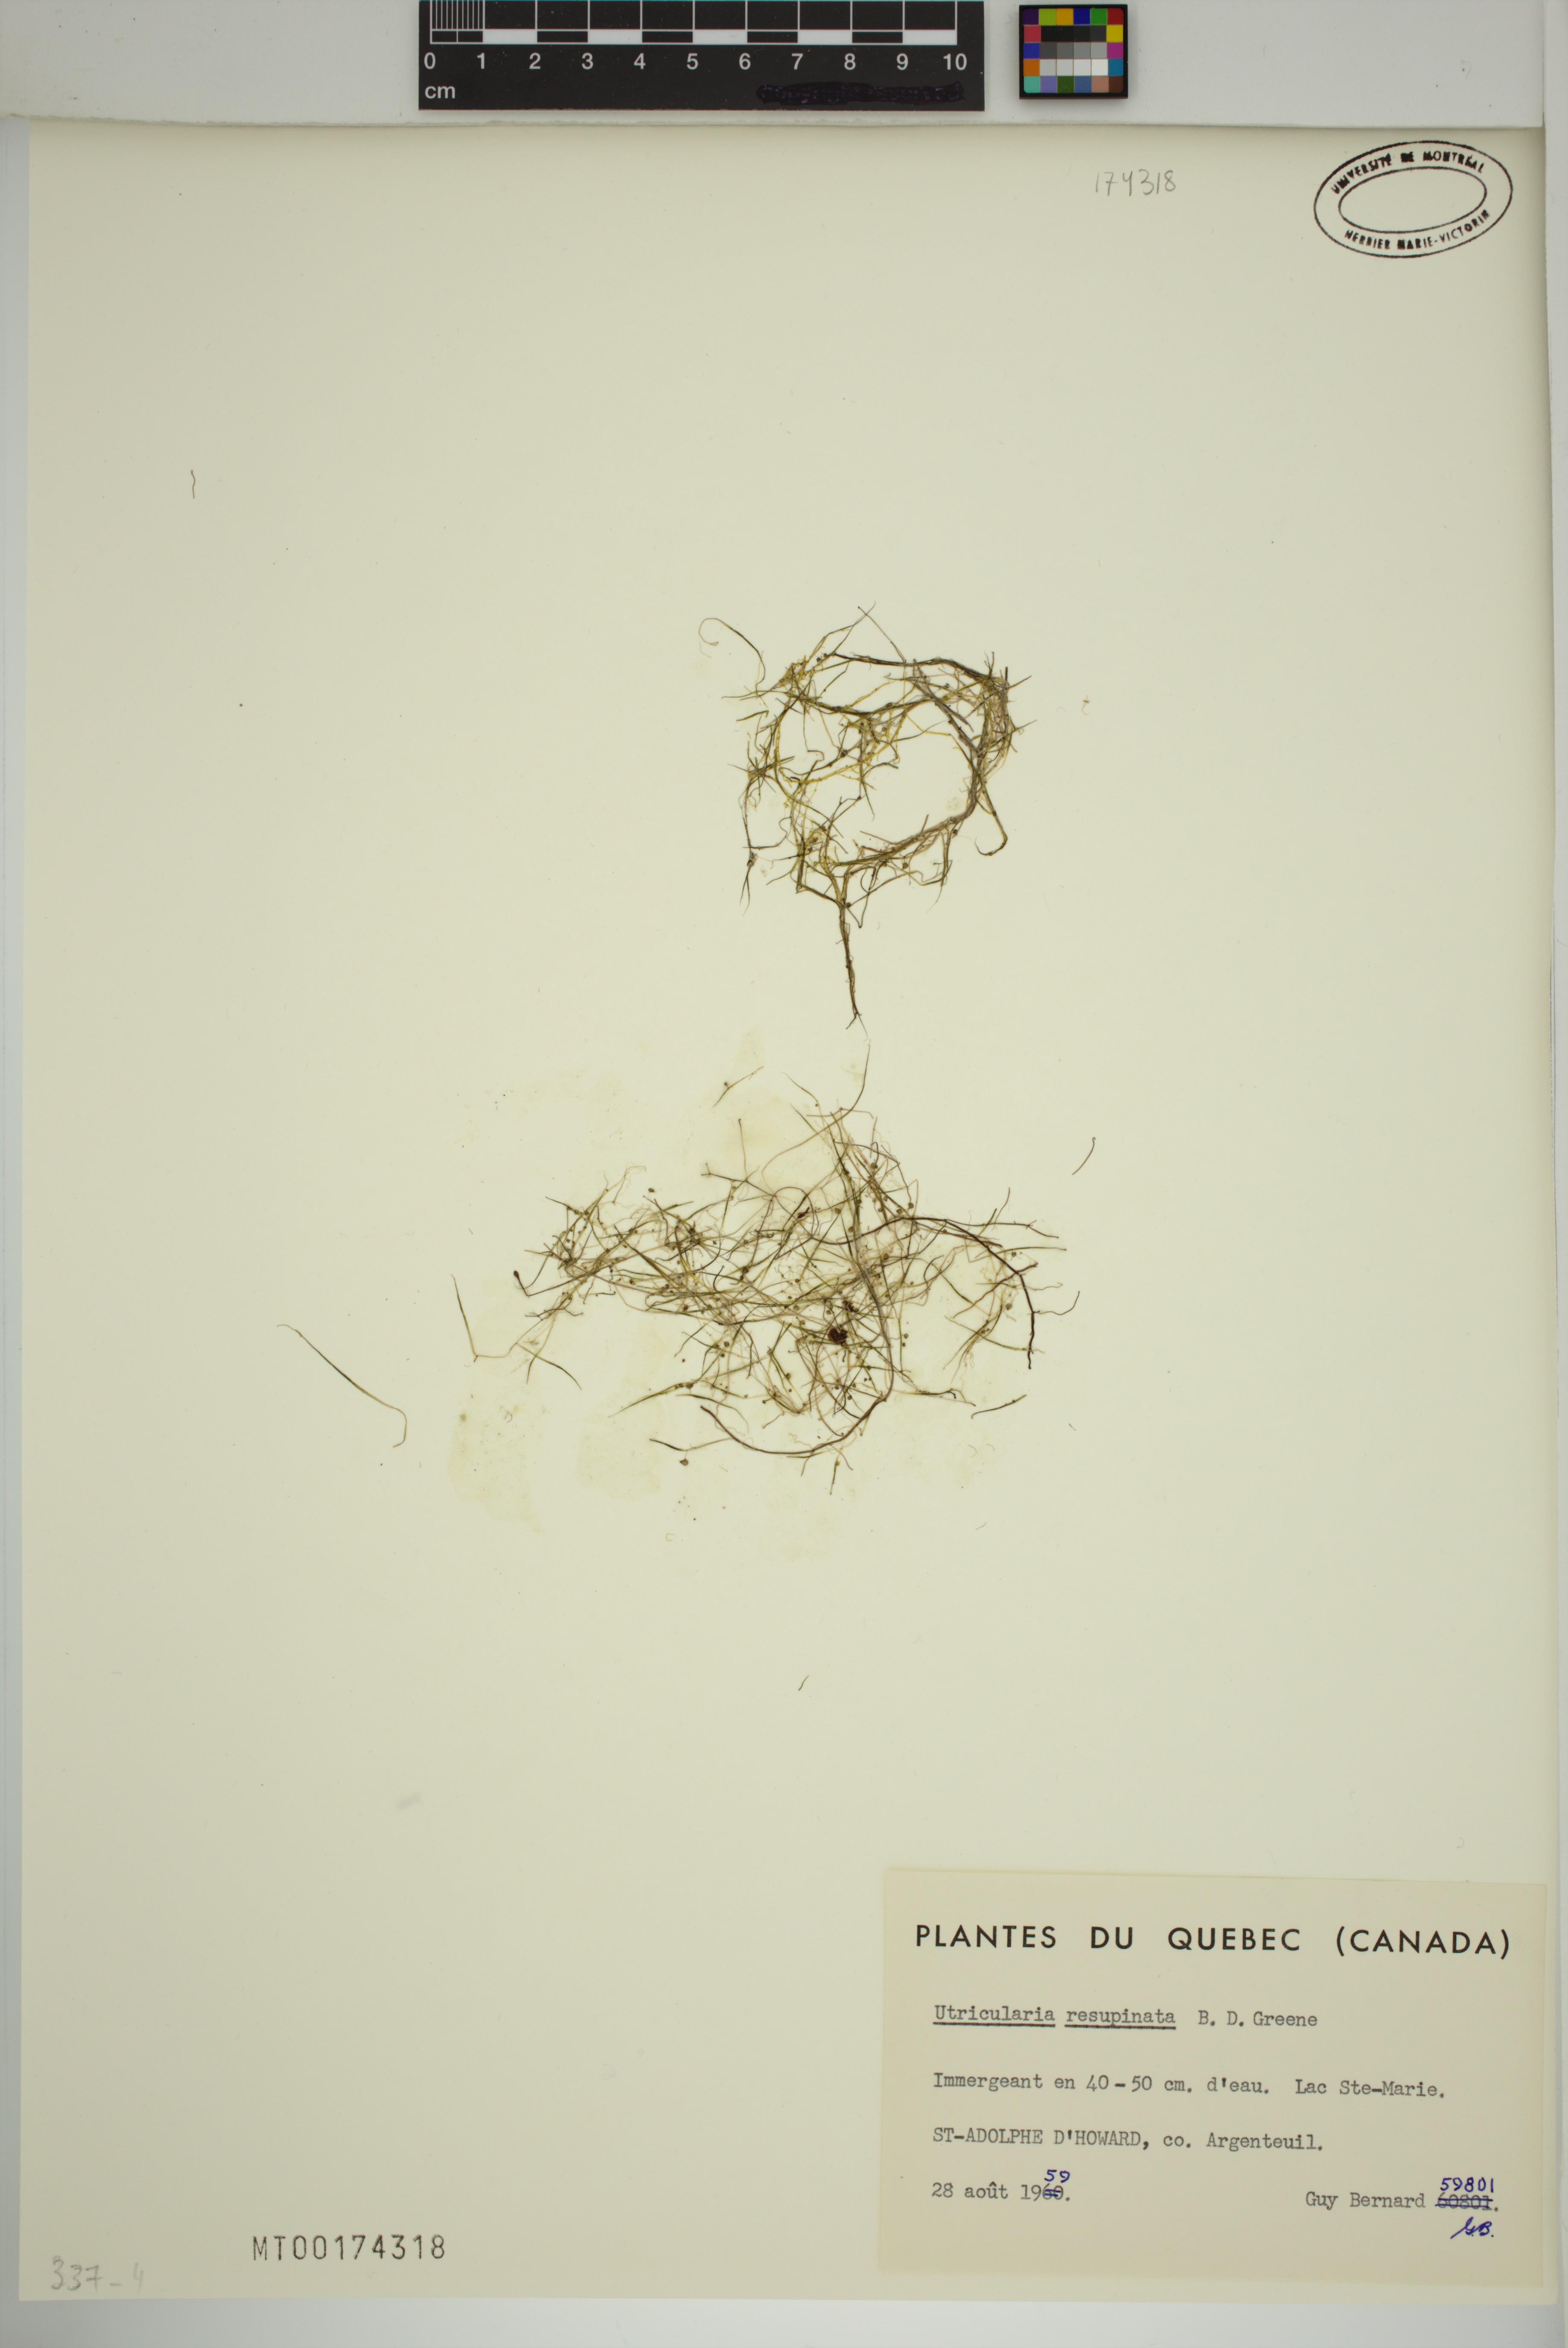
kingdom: Plantae
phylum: Tracheophyta
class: Magnoliopsida
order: Lamiales
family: Lentibulariaceae
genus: Utricularia
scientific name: Utricularia resupinata
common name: Northeastern bladderwort
